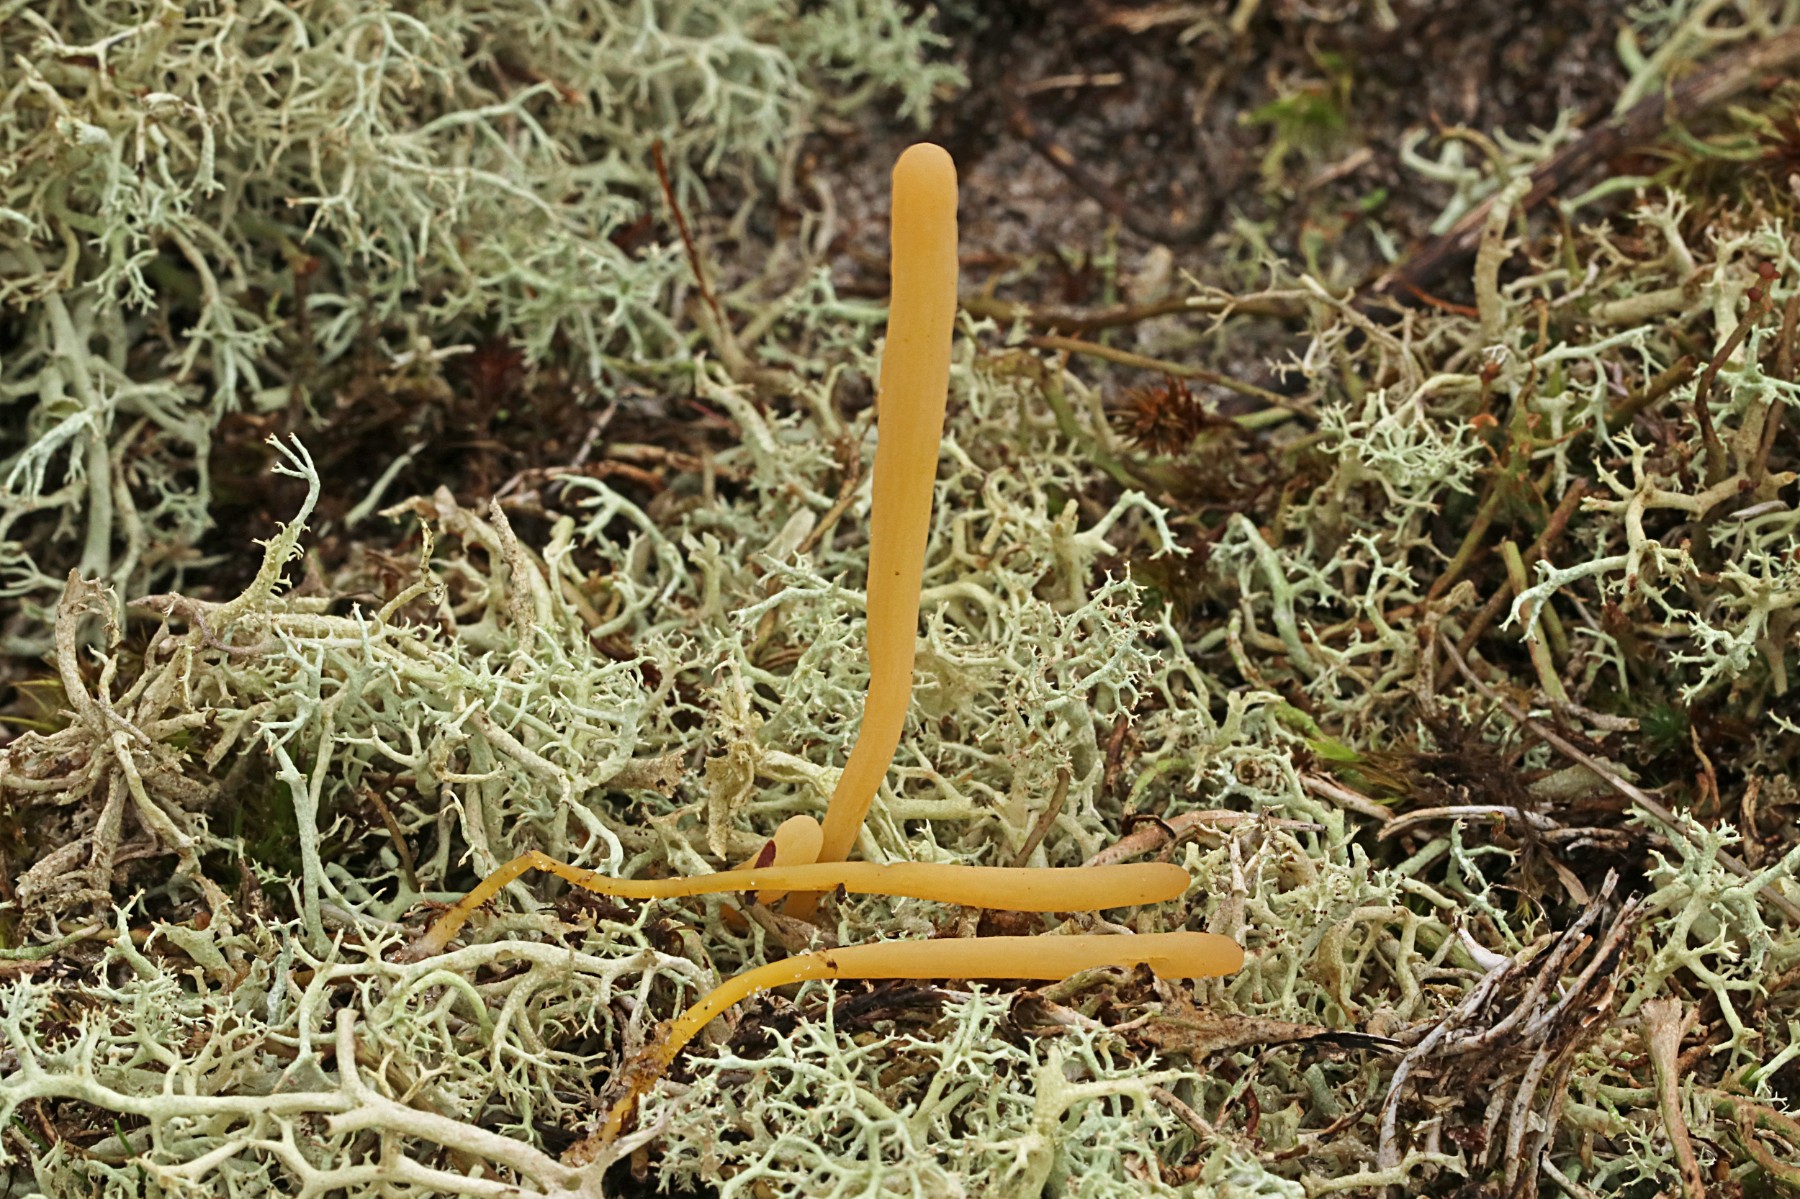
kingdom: Fungi
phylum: Basidiomycota
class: Agaricomycetes
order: Agaricales
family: Clavariaceae
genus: Clavaria
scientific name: Clavaria argillacea
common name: lerfarvet køllesvamp
